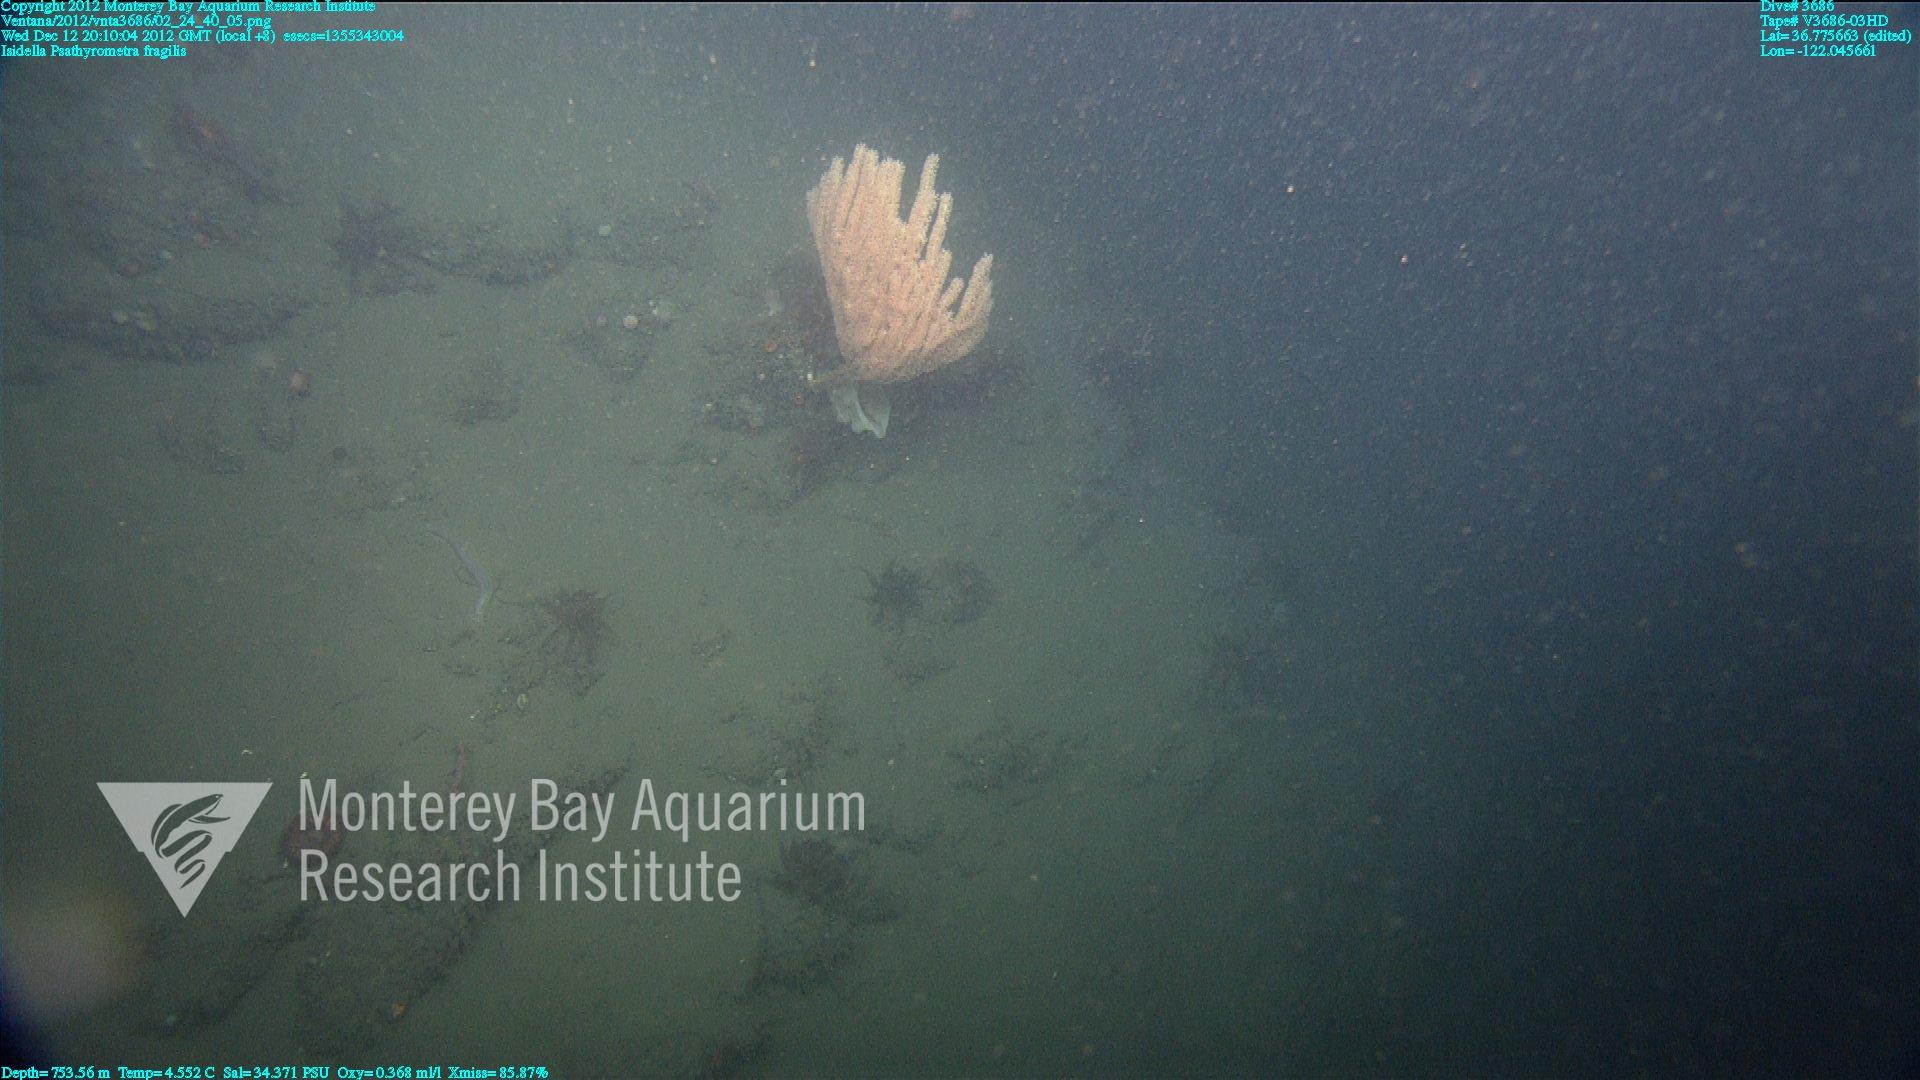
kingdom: Animalia
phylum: Cnidaria
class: Anthozoa
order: Scleralcyonacea
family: Keratoisididae
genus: Isidella
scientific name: Isidella
